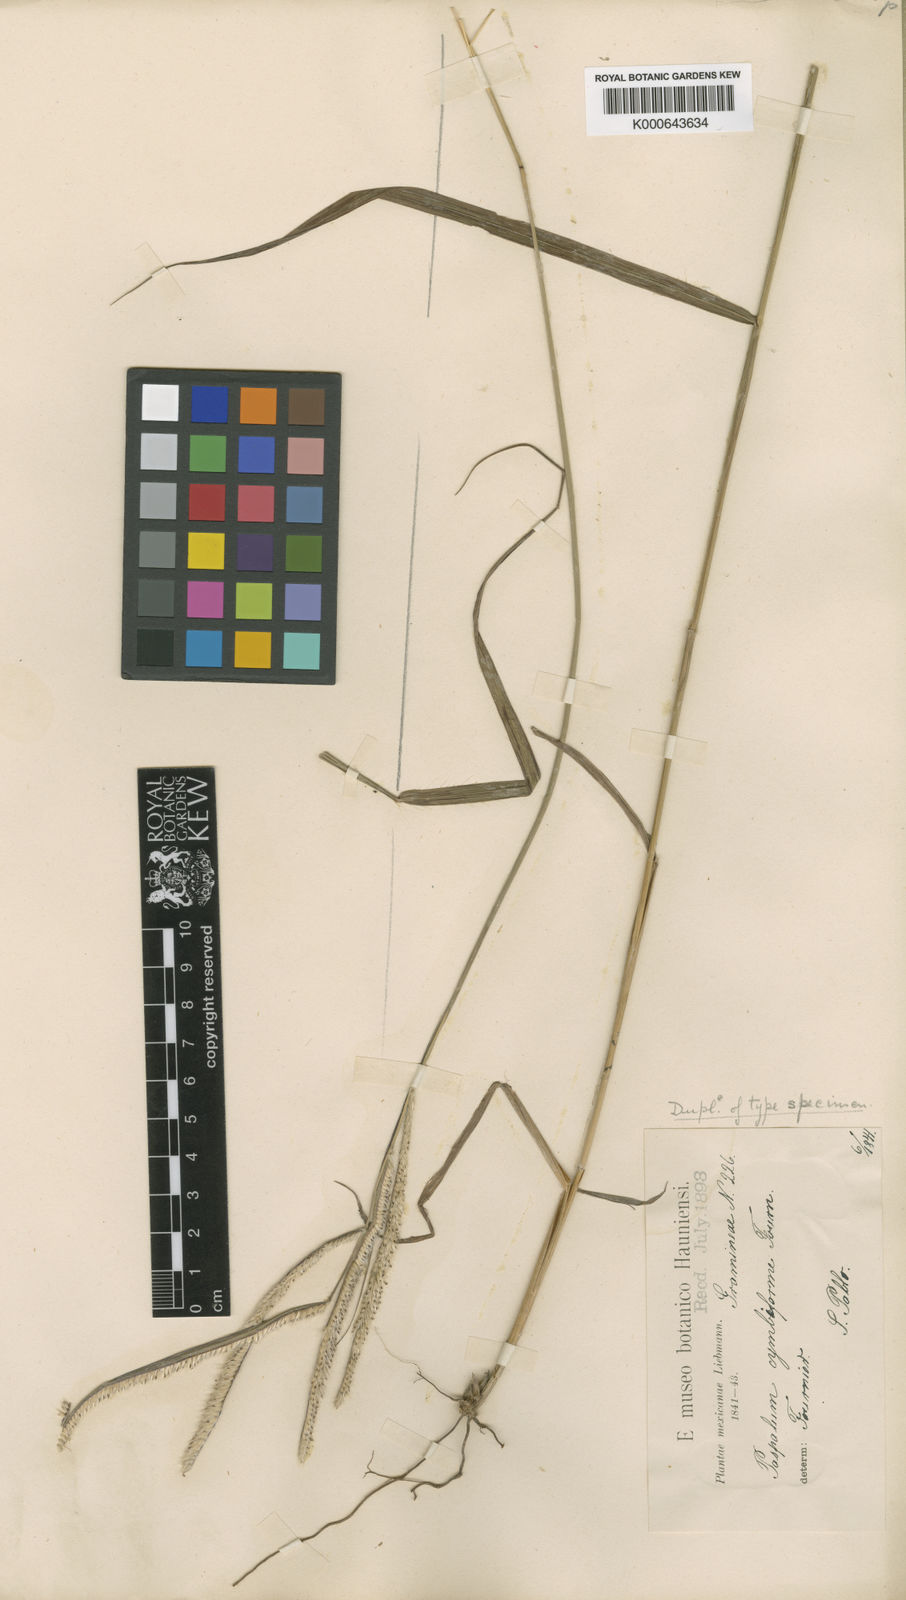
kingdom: Plantae
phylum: Tracheophyta
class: Liliopsida
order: Poales
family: Poaceae
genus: Paspalum
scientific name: Paspalum cymbiforme
